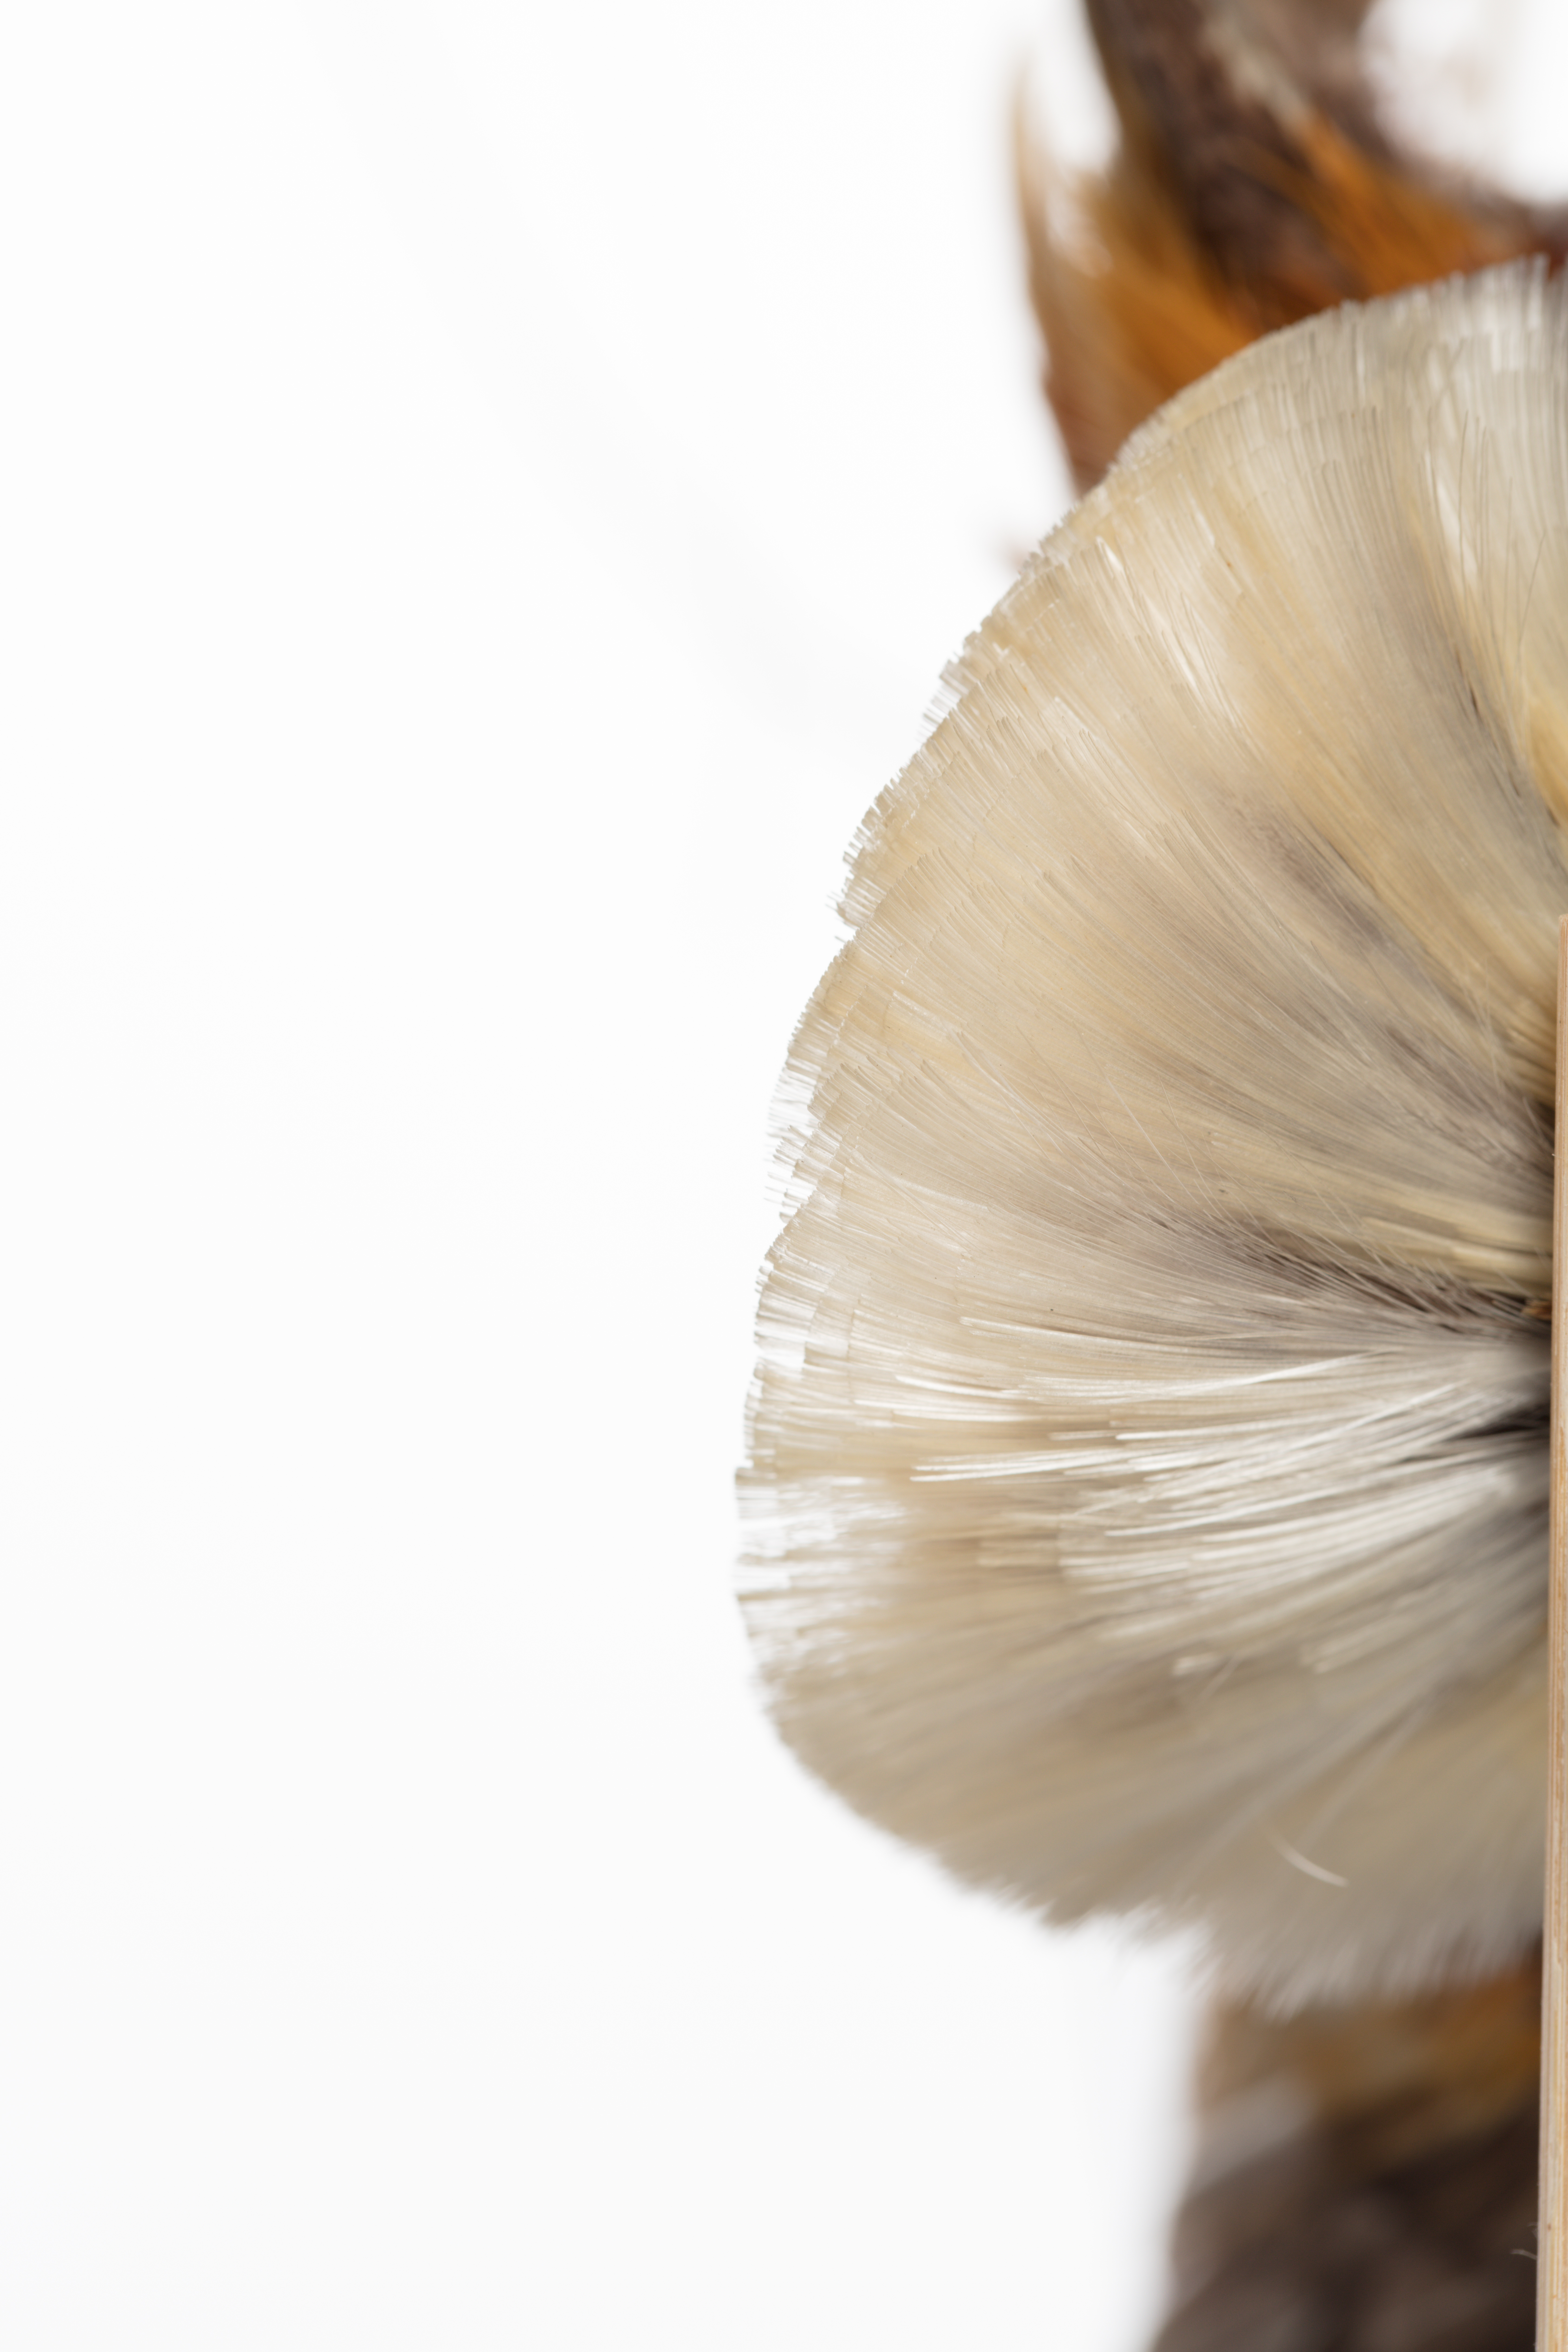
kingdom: Animalia
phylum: Chordata
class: Aves
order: Passeriformes
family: Paradisaeidae
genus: Diphyllodes
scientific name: Diphyllodes magnificus
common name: Magnificent bird-of-paradise
